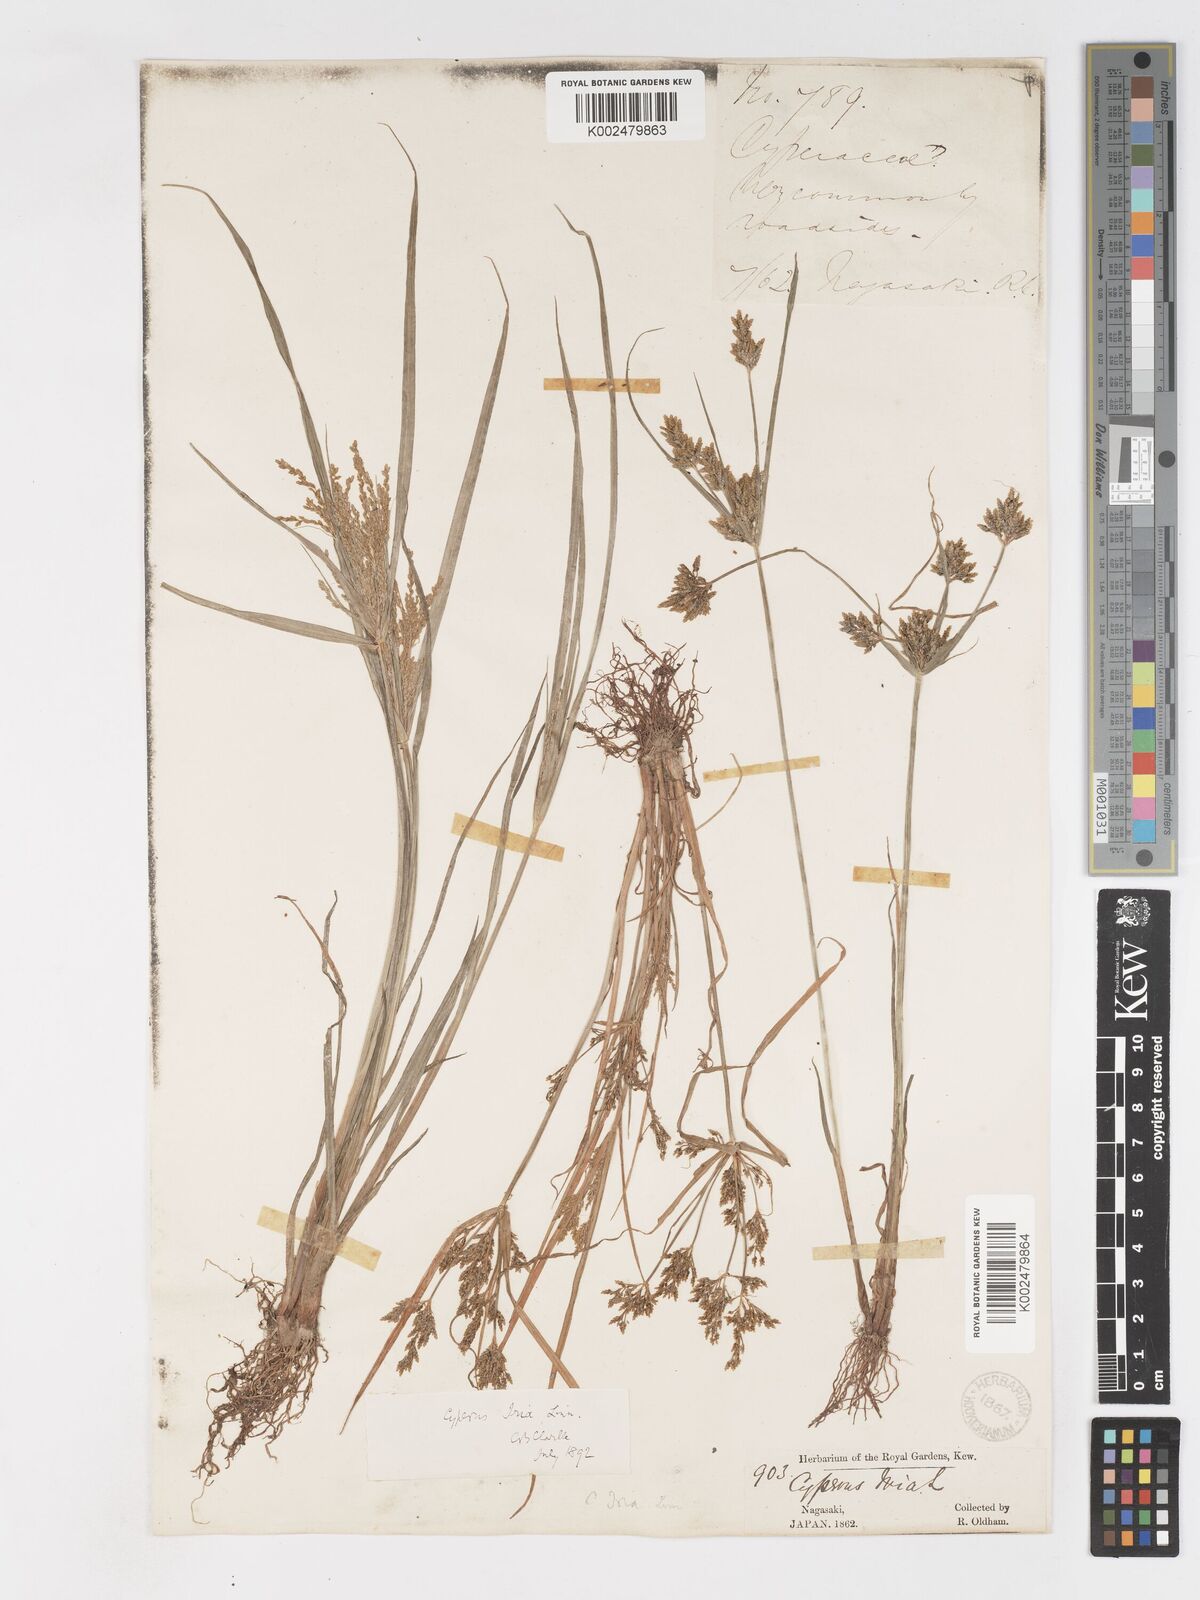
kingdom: Plantae
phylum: Tracheophyta
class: Liliopsida
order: Poales
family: Cyperaceae
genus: Cyperus
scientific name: Cyperus iria
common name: Ricefield flatsedge
